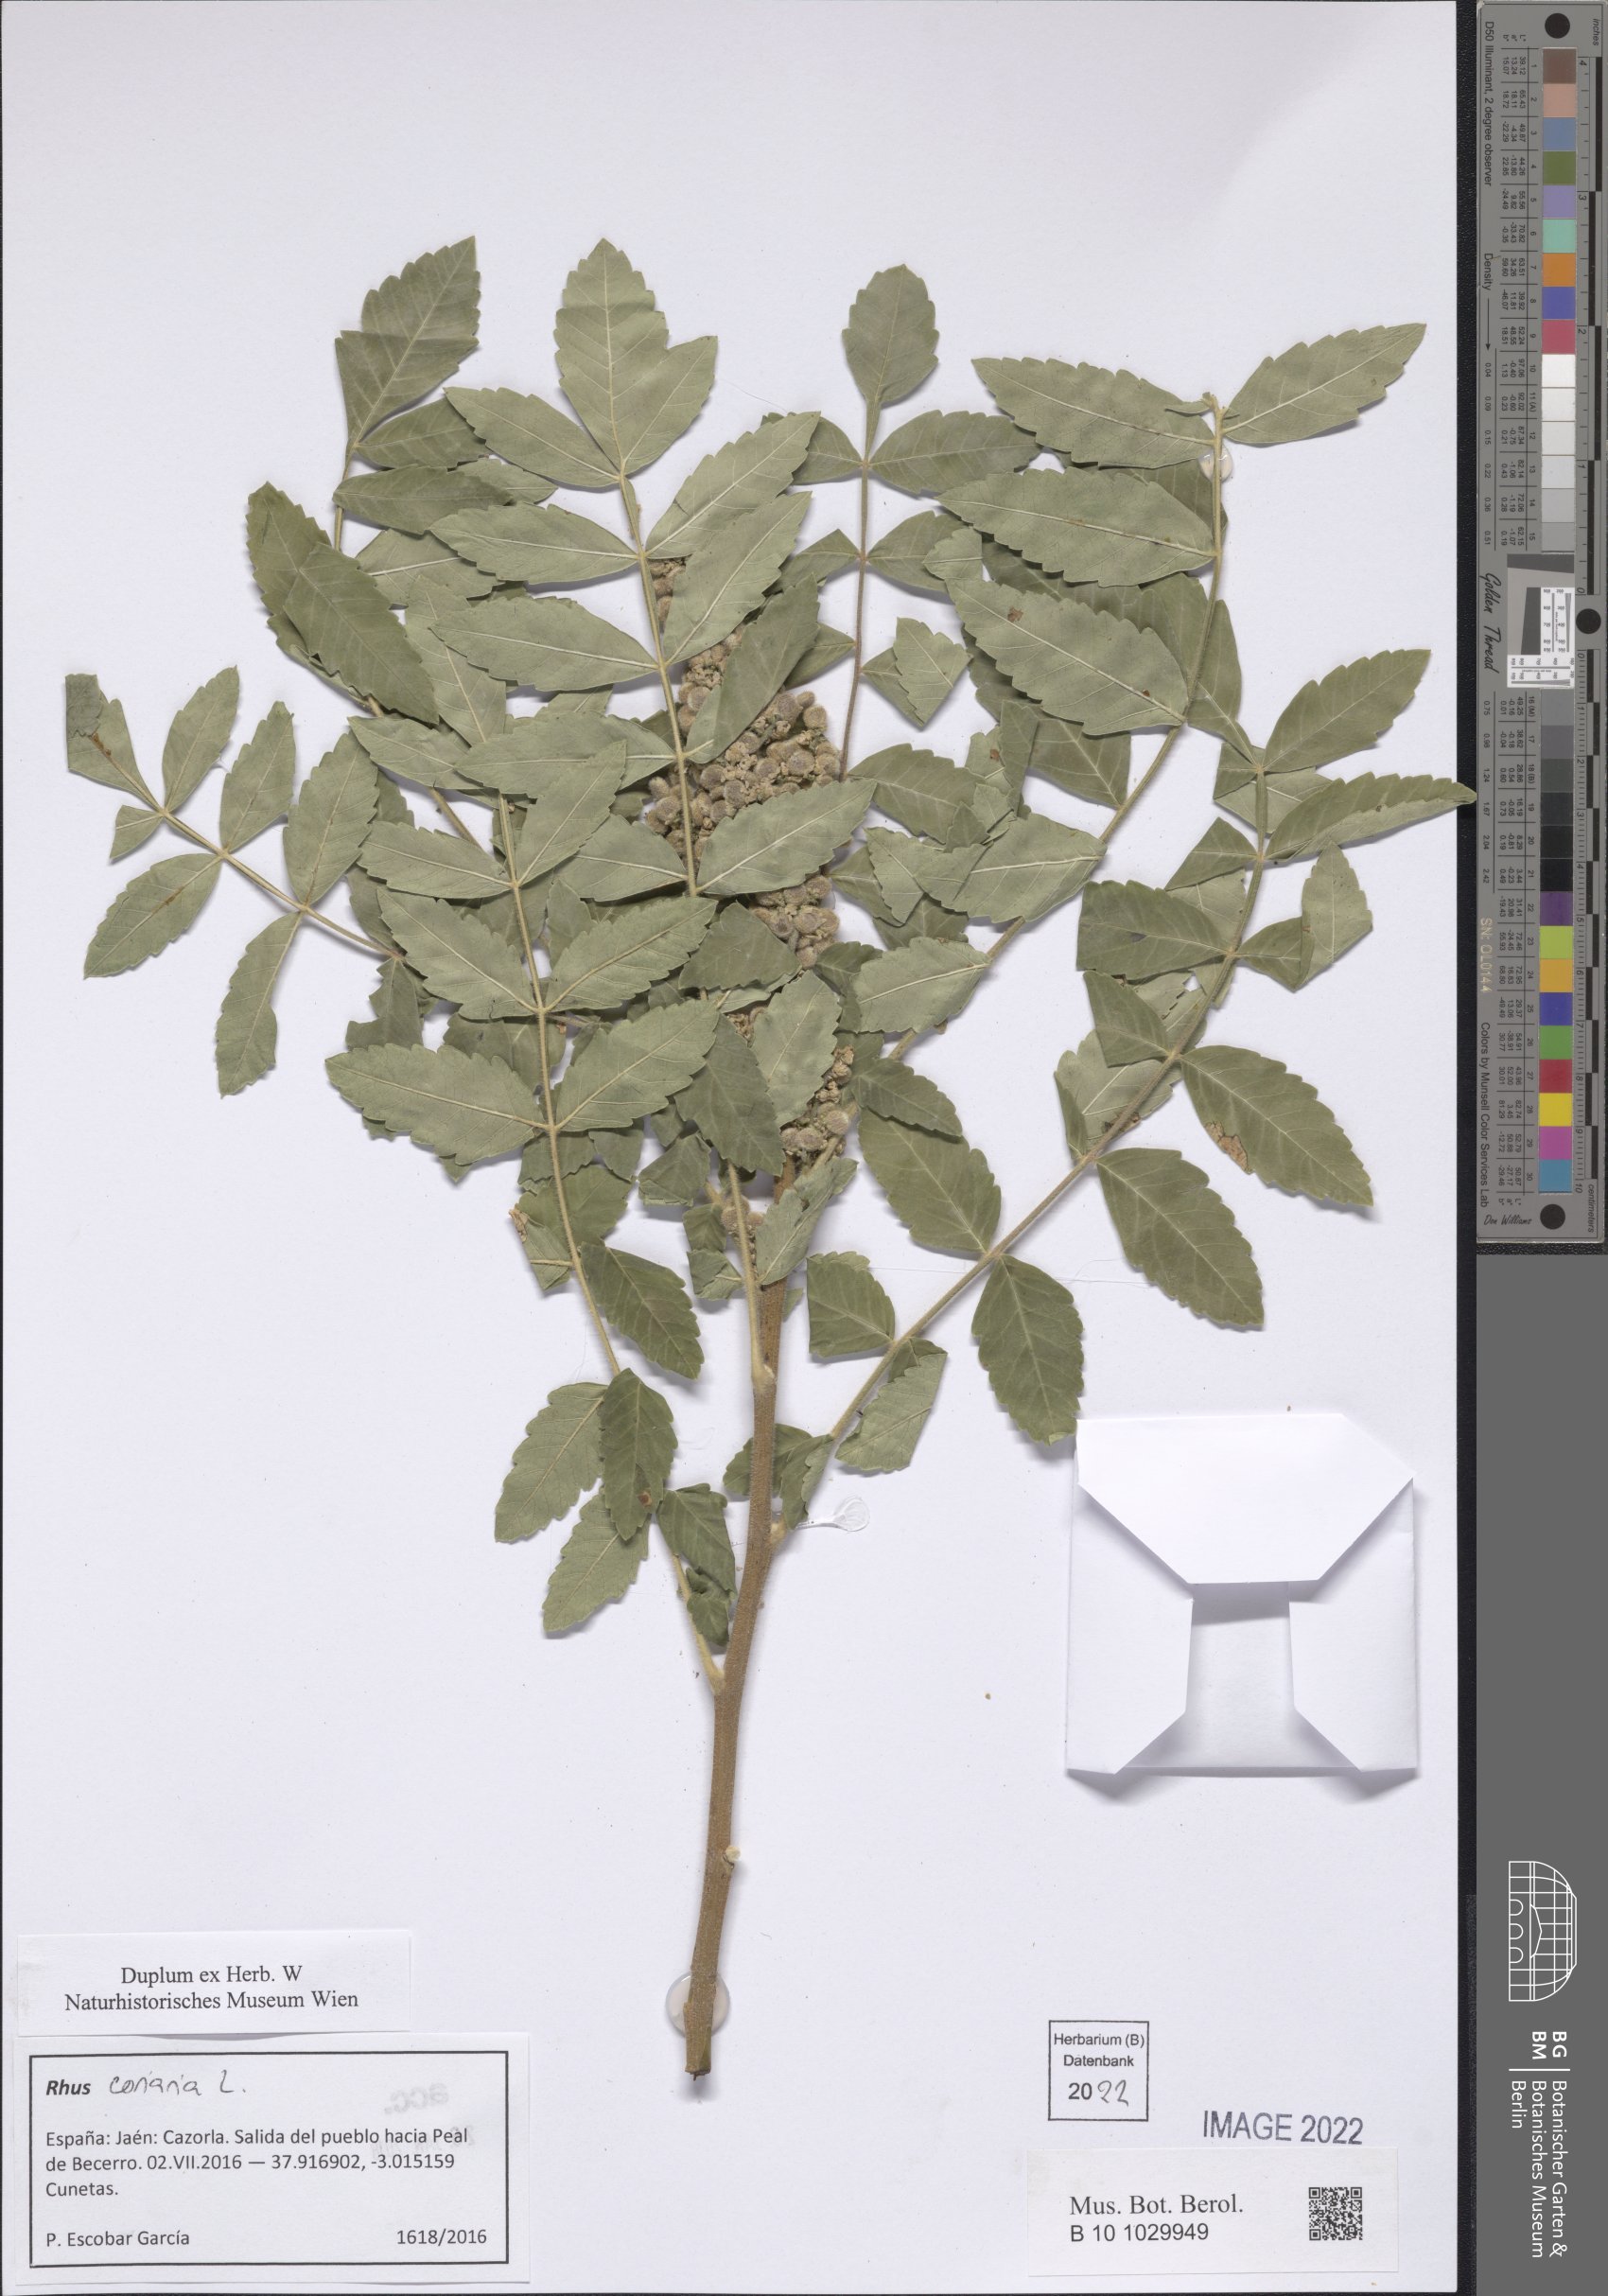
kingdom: Plantae
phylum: Tracheophyta
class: Magnoliopsida
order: Sapindales
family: Anacardiaceae
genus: Rhus
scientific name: Rhus coriaria
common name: Tanner's sumach
